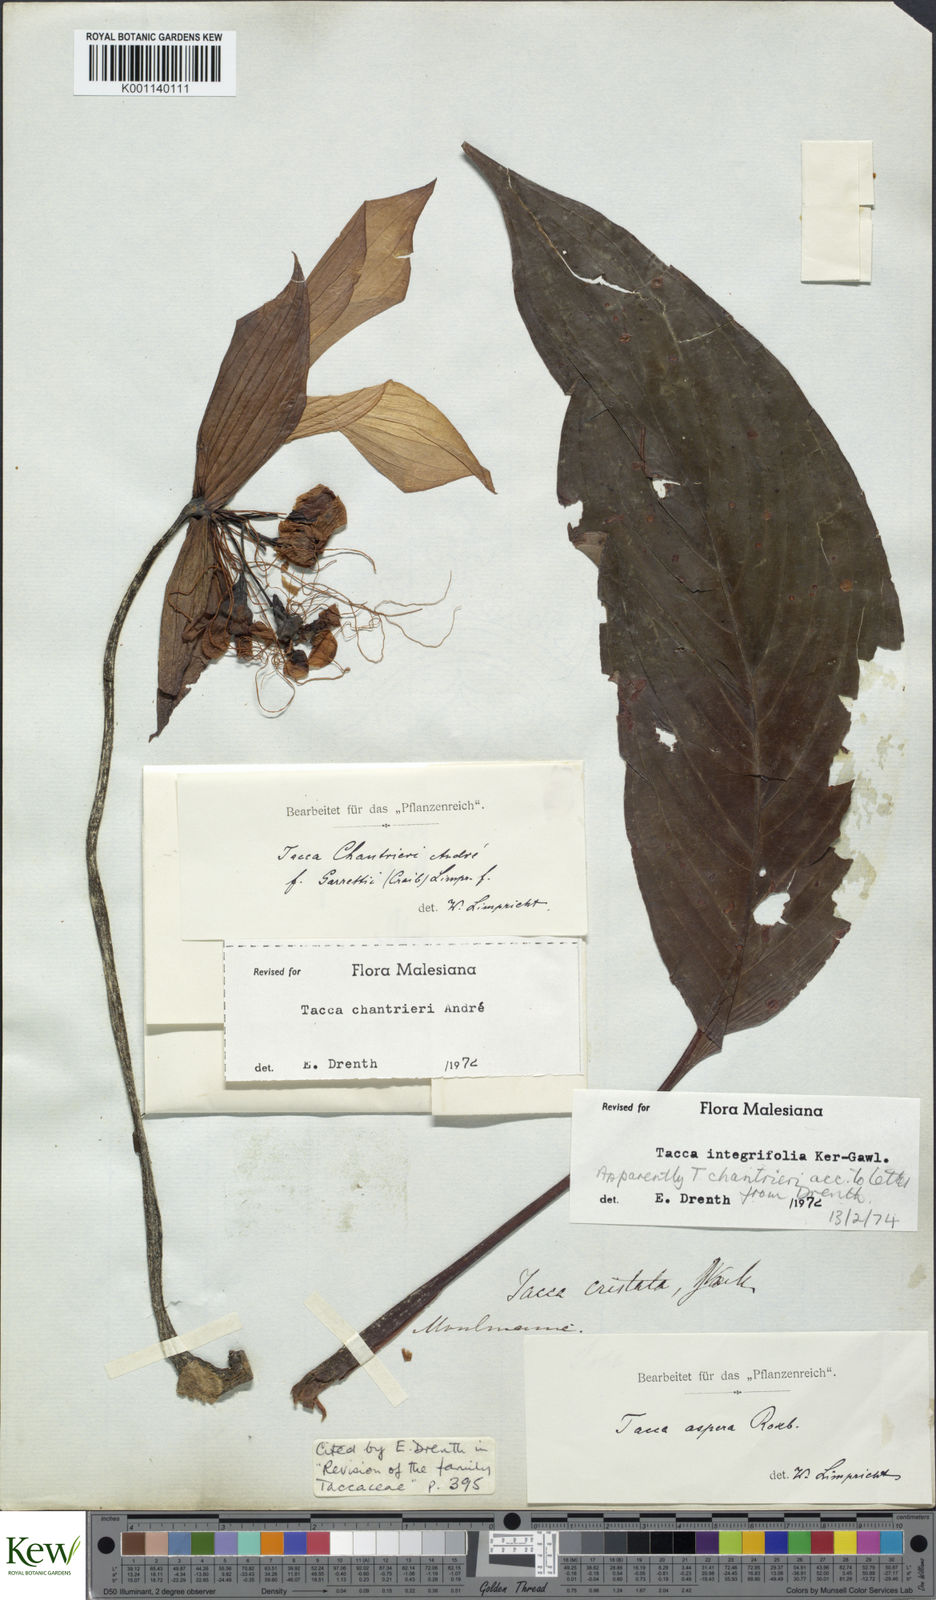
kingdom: Plantae
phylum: Tracheophyta
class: Liliopsida
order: Dioscoreales
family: Dioscoreaceae
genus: Tacca
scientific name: Tacca
